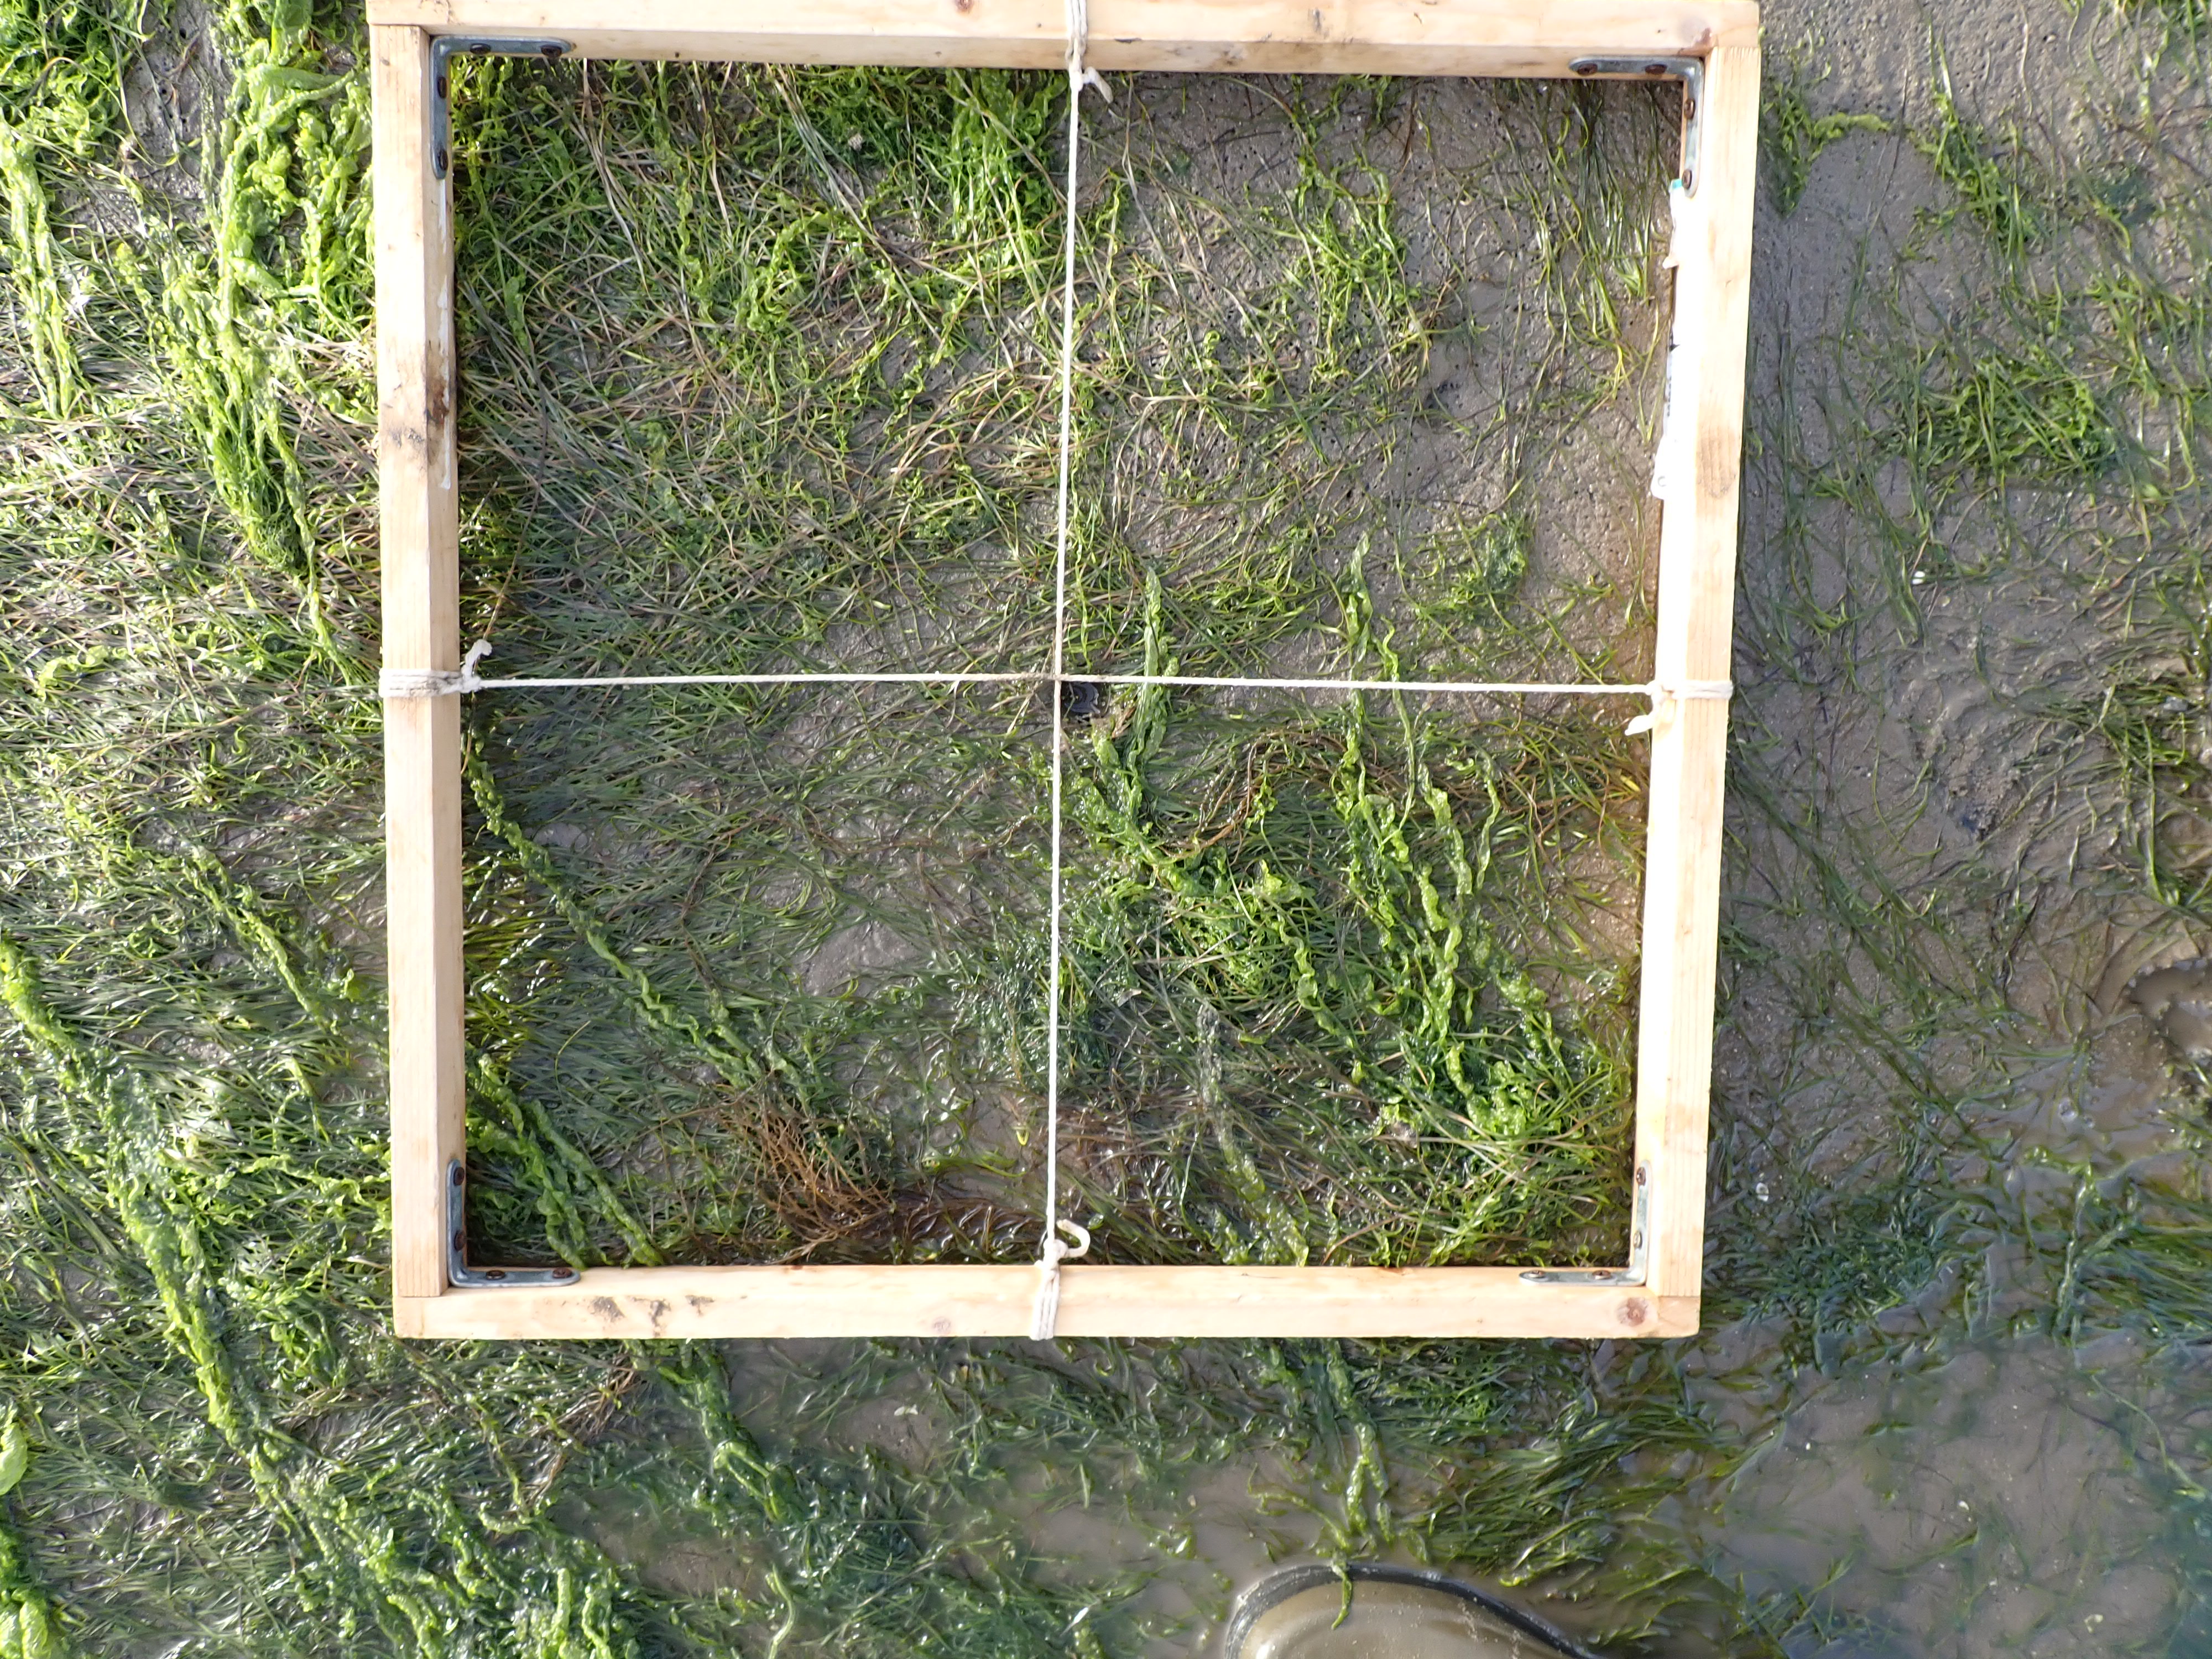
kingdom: Plantae
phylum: Rhodophyta
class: Florideophyceae
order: Gracilariales
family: Gracilariaceae
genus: Gracilaria
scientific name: Gracilaria vermiculophylla
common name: Algae
